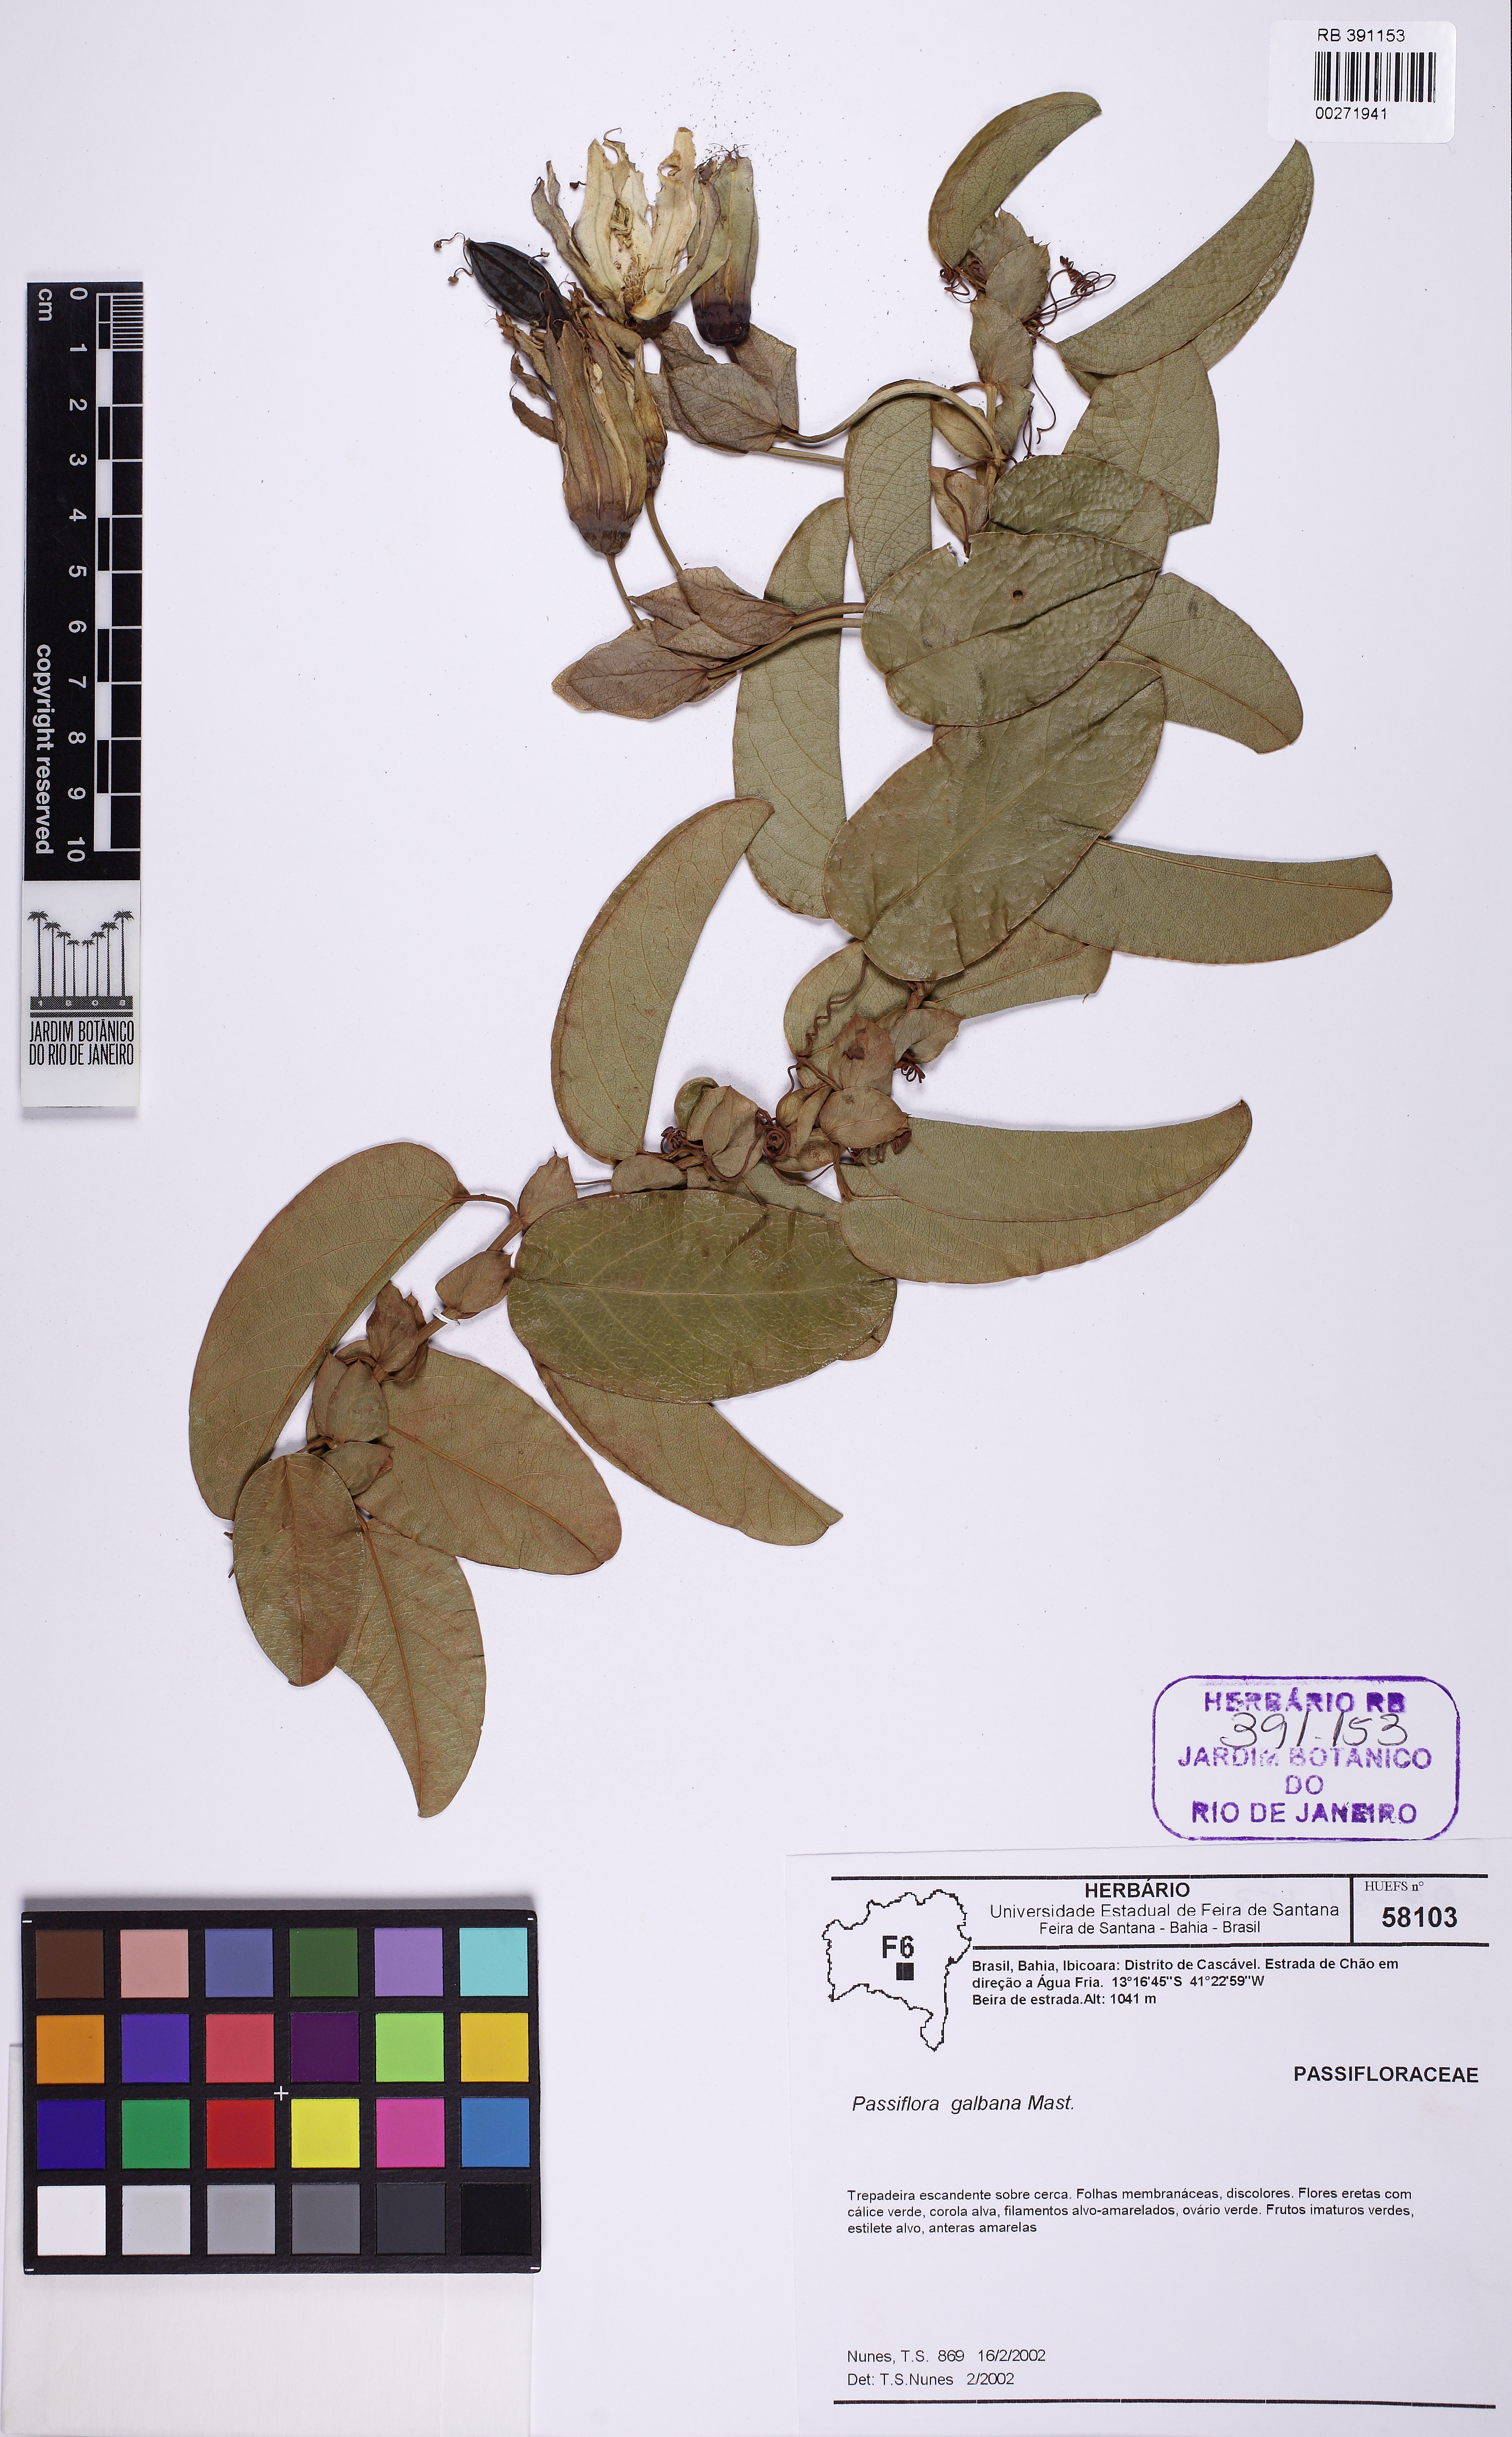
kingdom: Plantae
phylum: Tracheophyta
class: Magnoliopsida
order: Malpighiales
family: Passifloraceae
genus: Passiflora
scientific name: Passiflora silvestris
